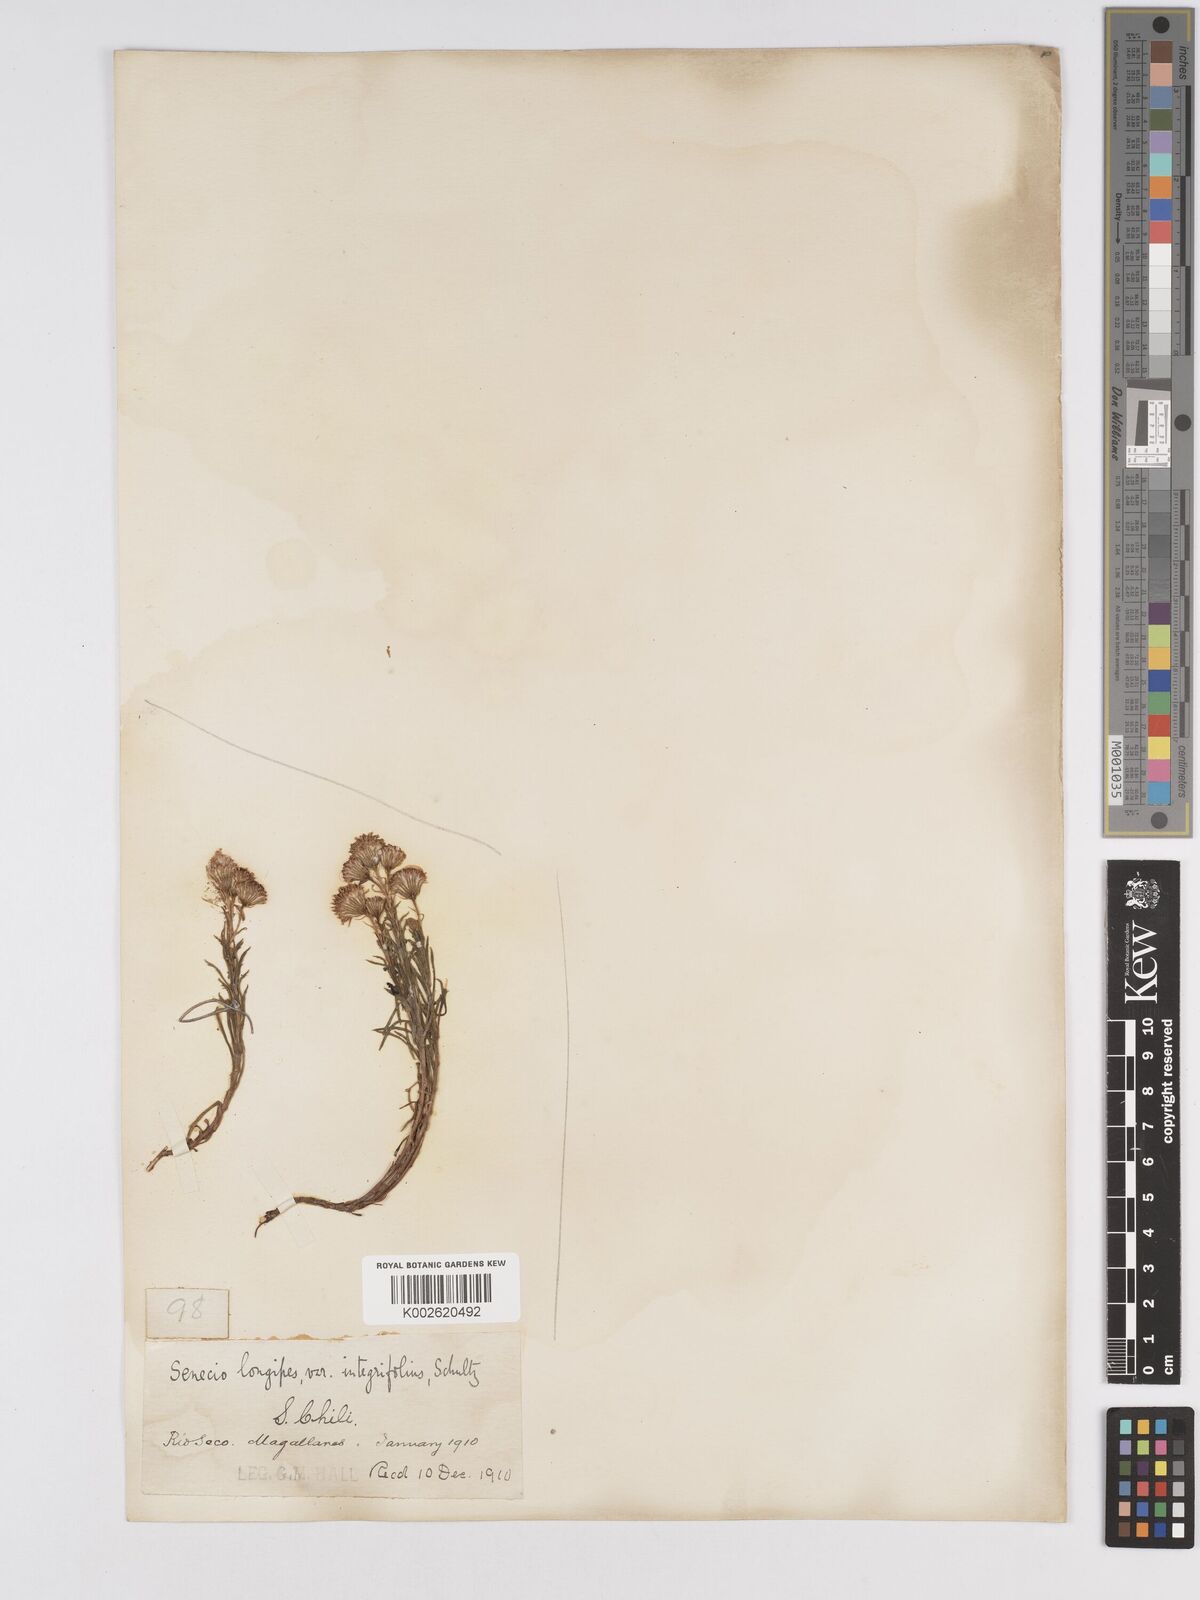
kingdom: Plantae
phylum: Tracheophyta
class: Magnoliopsida
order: Asterales
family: Asteraceae
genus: Senecio
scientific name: Senecio tricuspidatus
